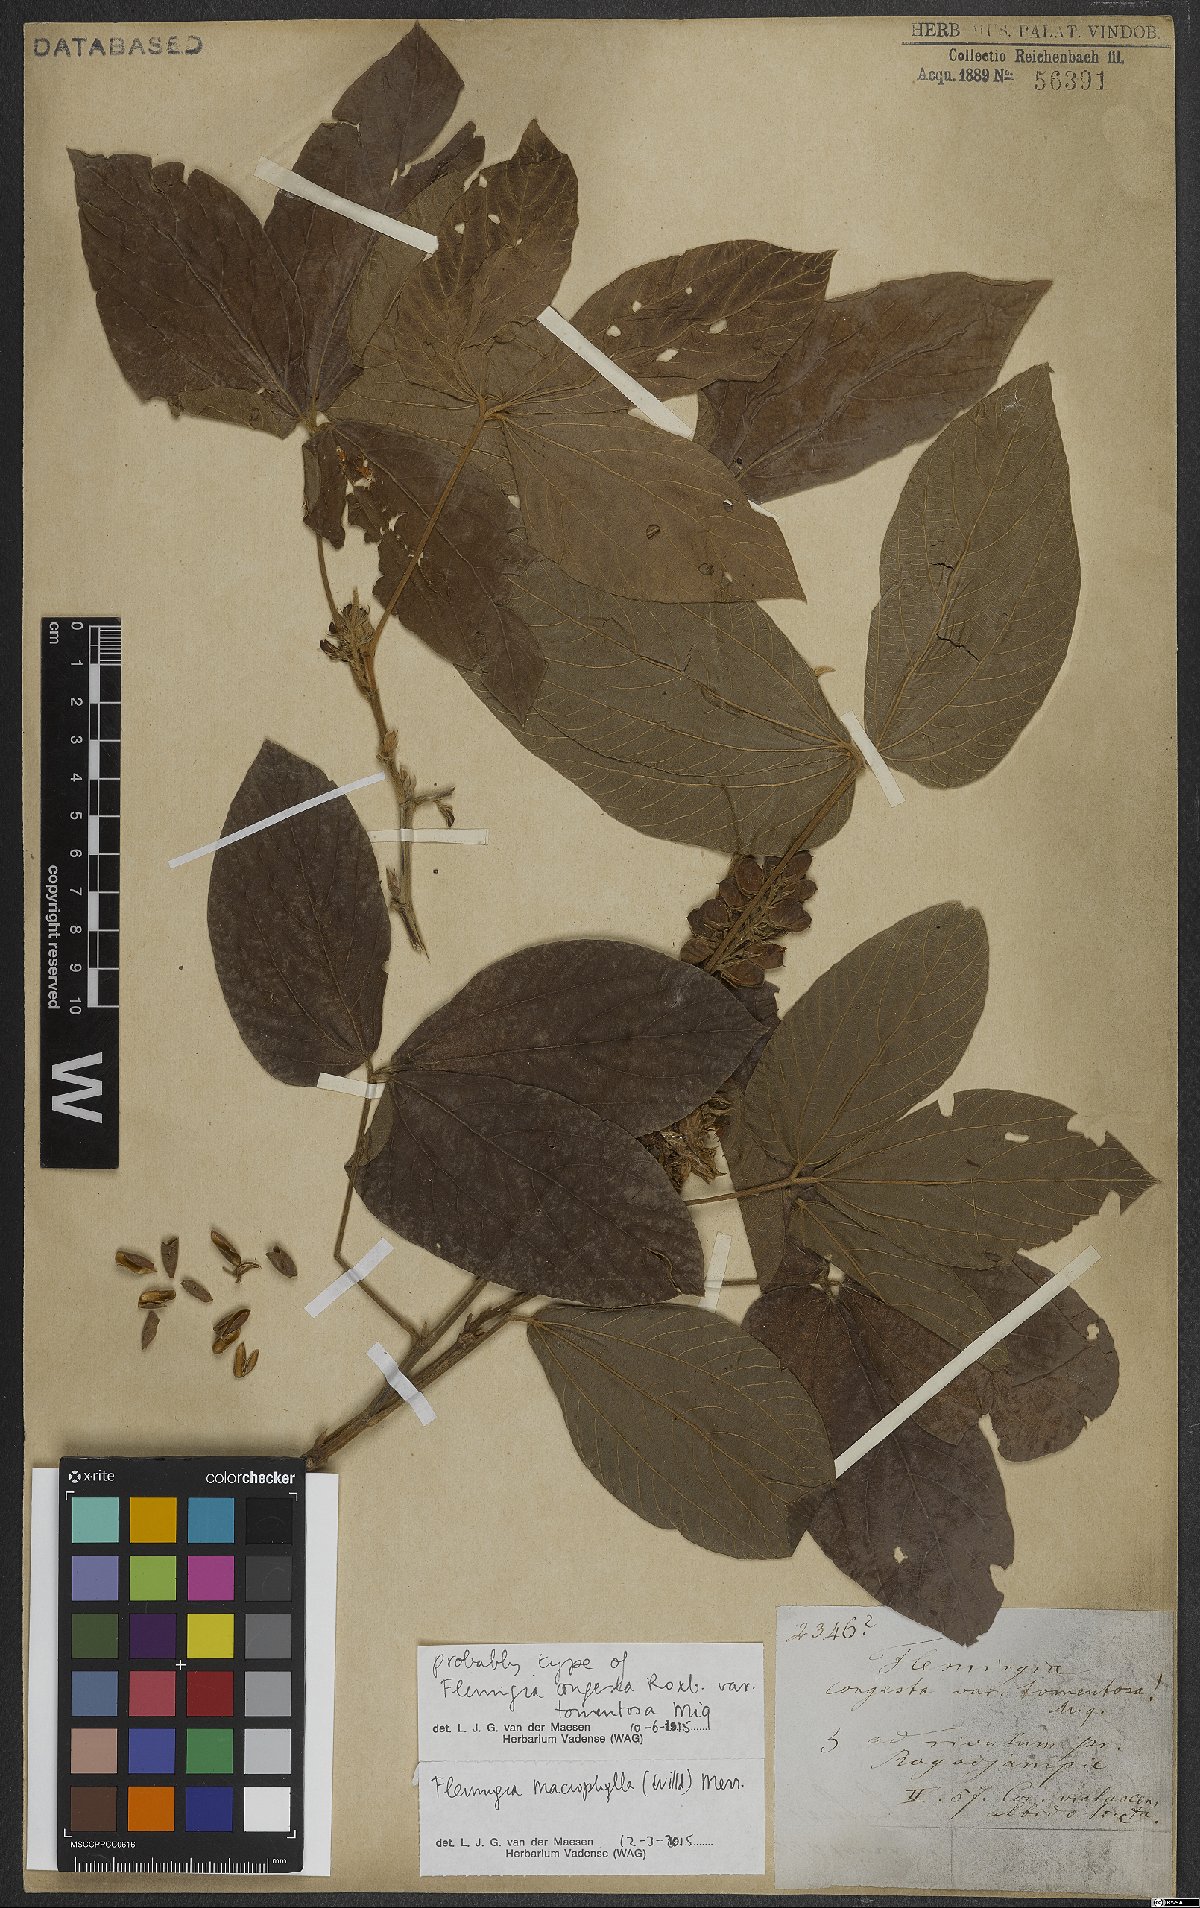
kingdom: Plantae
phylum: Tracheophyta
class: Magnoliopsida
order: Fabales
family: Fabaceae
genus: Flemingia
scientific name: Flemingia macrophylla
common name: Flemingia
